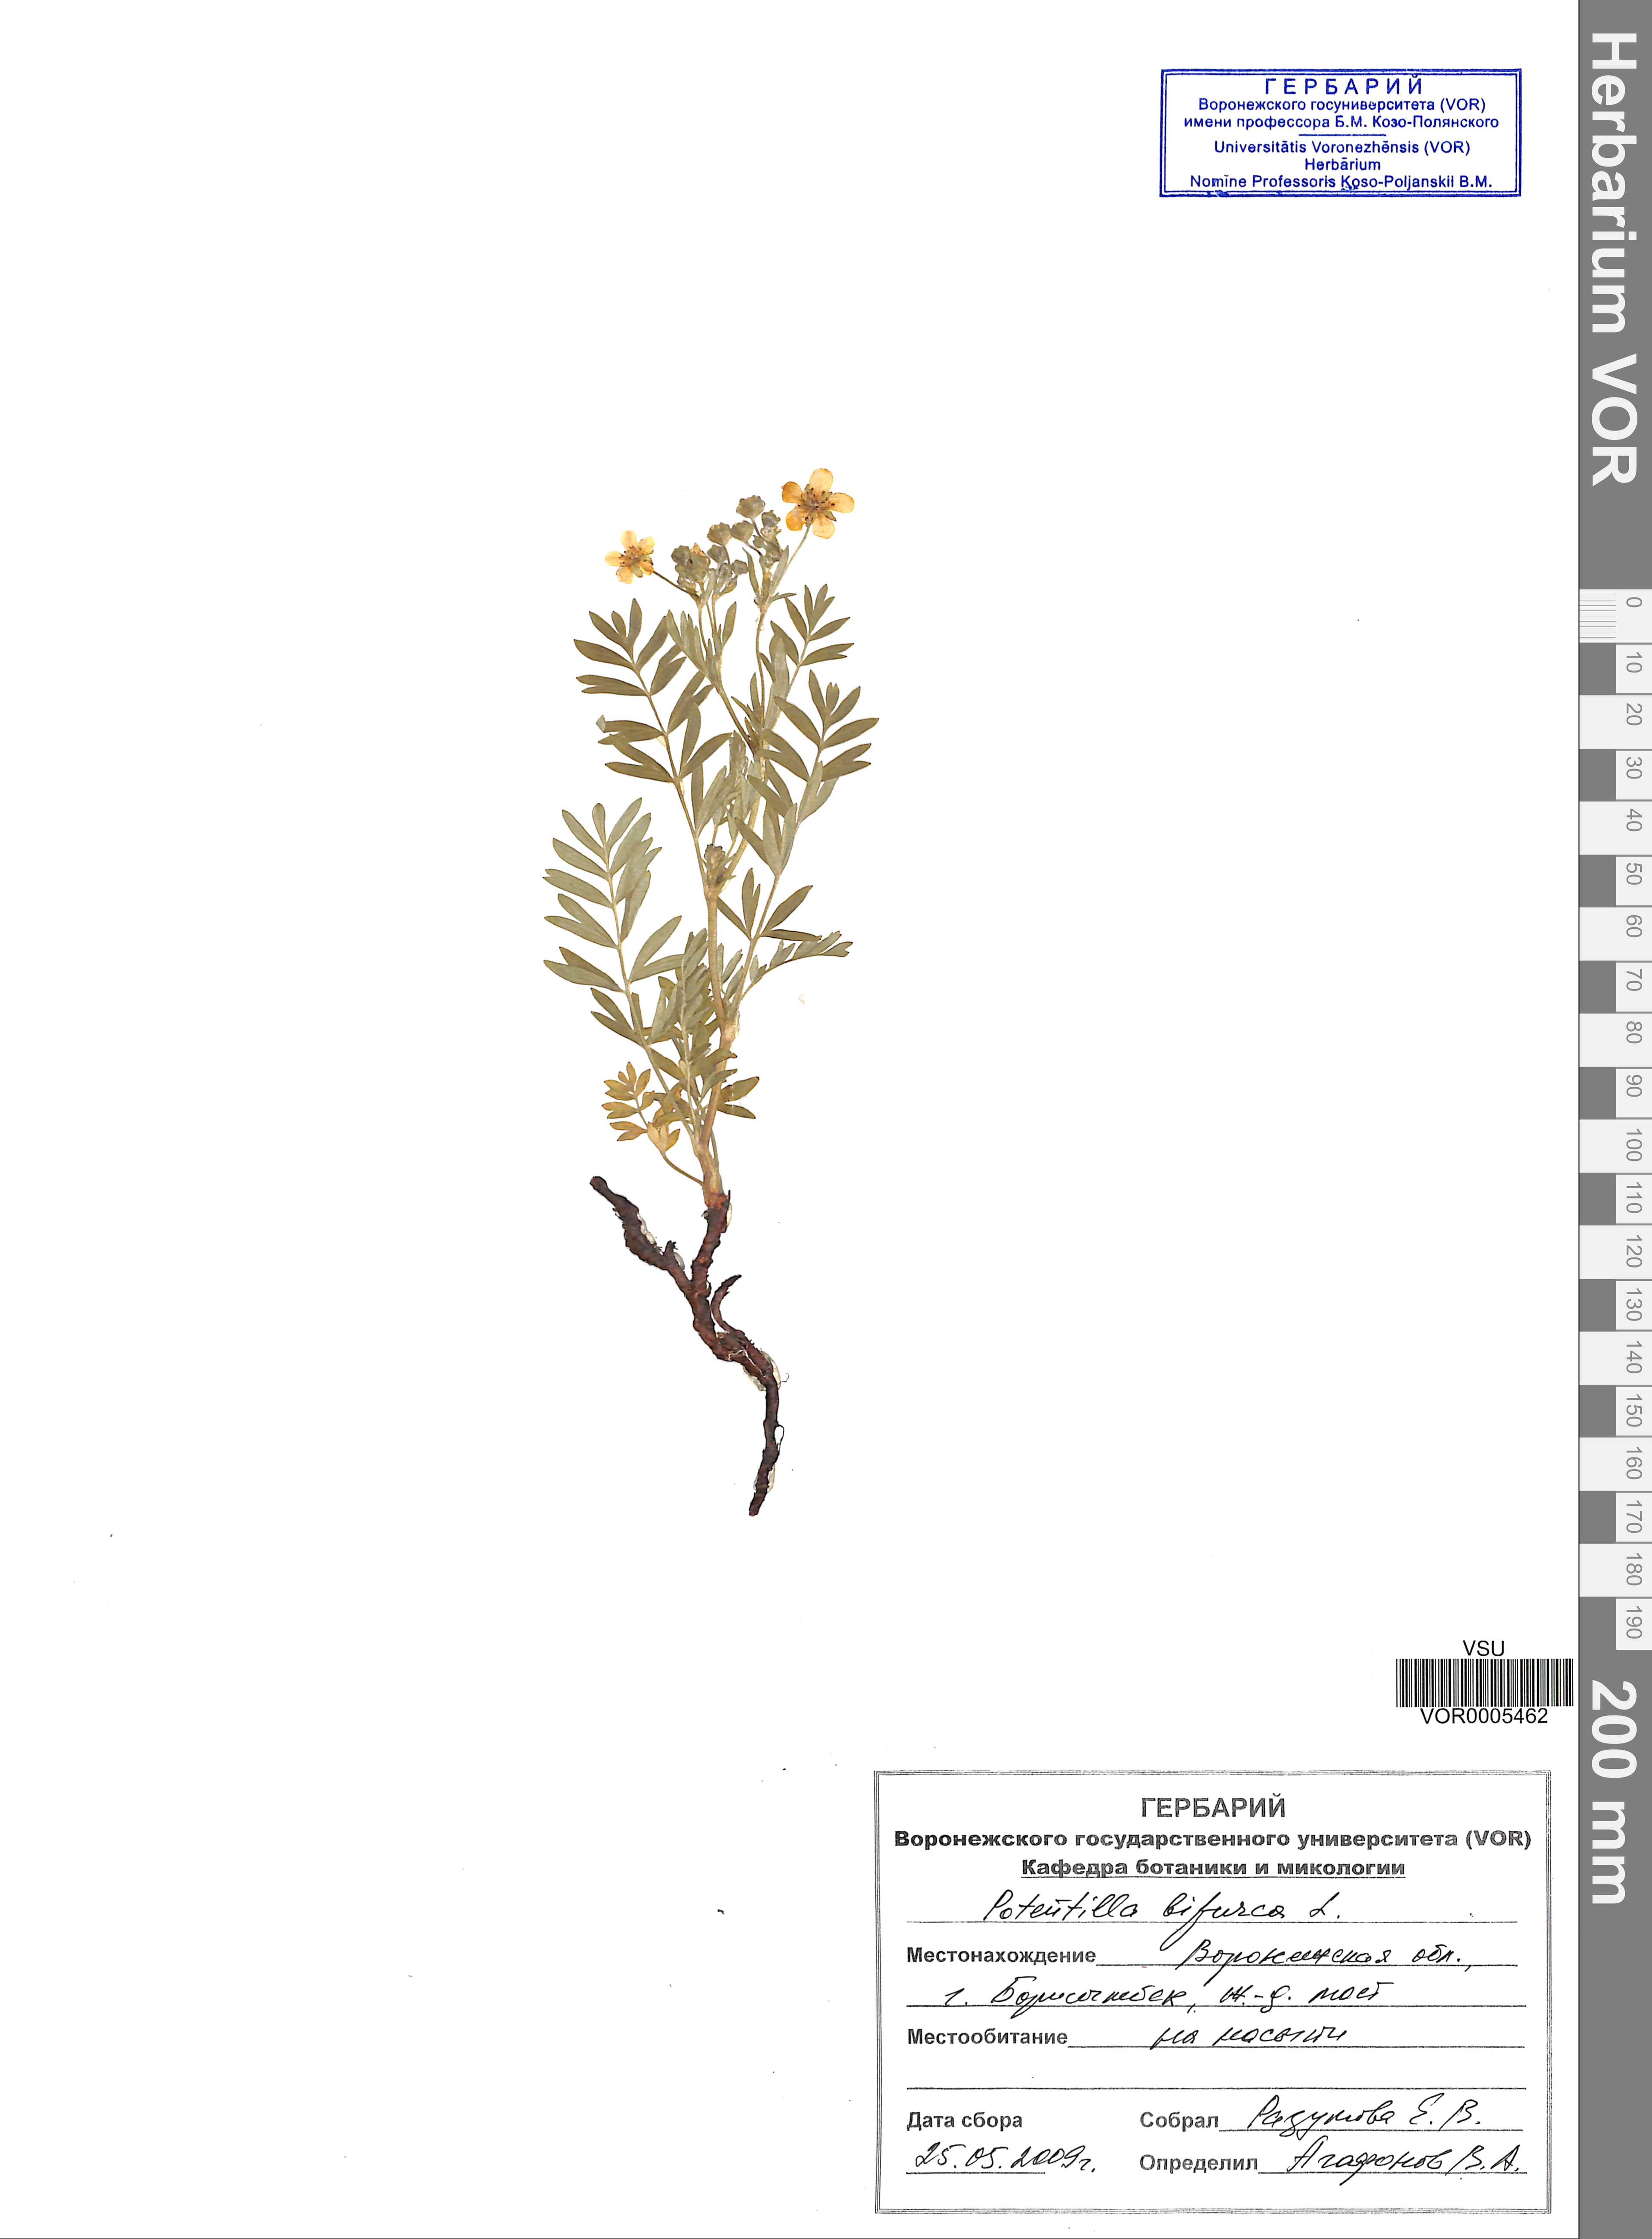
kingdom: Plantae
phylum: Tracheophyta
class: Magnoliopsida
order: Rosales
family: Rosaceae
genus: Sibbaldianthe
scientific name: Sibbaldianthe bifurca
